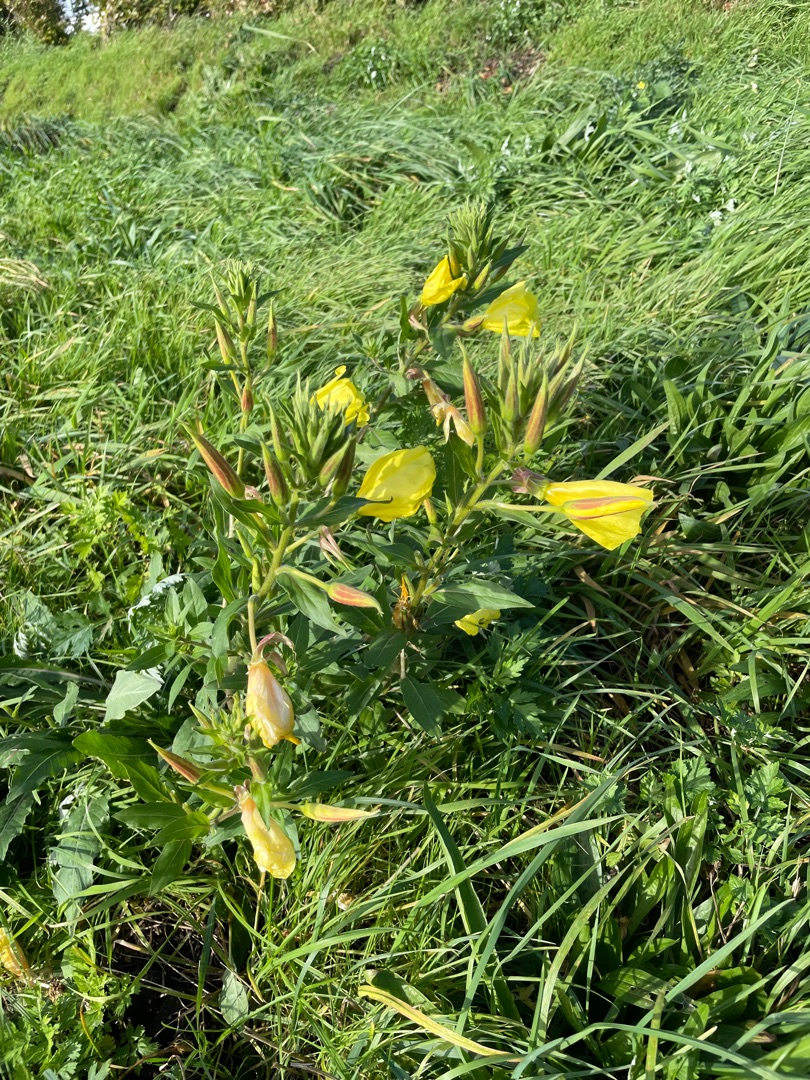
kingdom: Plantae
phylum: Tracheophyta
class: Magnoliopsida
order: Myrtales
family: Onagraceae
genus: Oenothera
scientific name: Oenothera glazioviana
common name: Kæmpe-natlys
